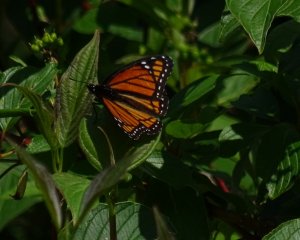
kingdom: Animalia
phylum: Arthropoda
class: Insecta
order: Lepidoptera
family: Nymphalidae
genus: Limenitis
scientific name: Limenitis archippus
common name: Viceroy
